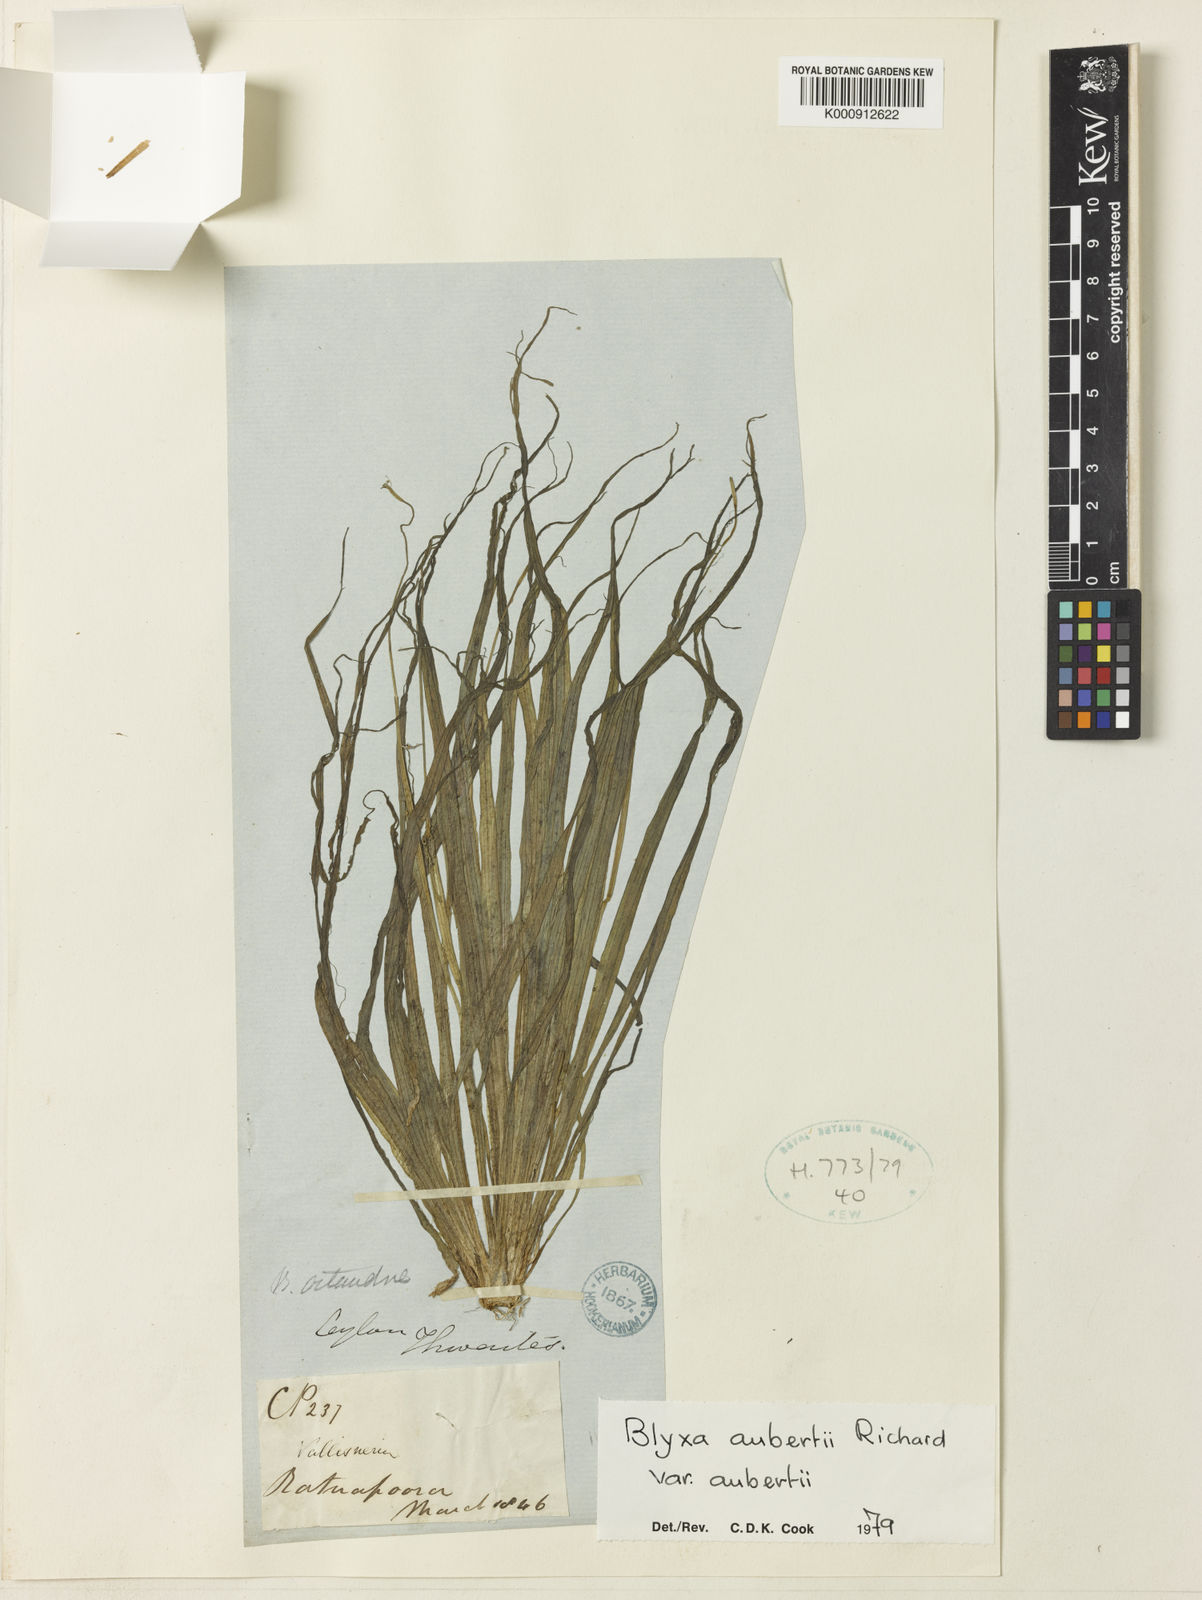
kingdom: Plantae
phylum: Tracheophyta
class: Liliopsida
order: Alismatales
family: Hydrocharitaceae
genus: Blyxa
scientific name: Blyxa aubertii
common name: Roundfruit blyxa
